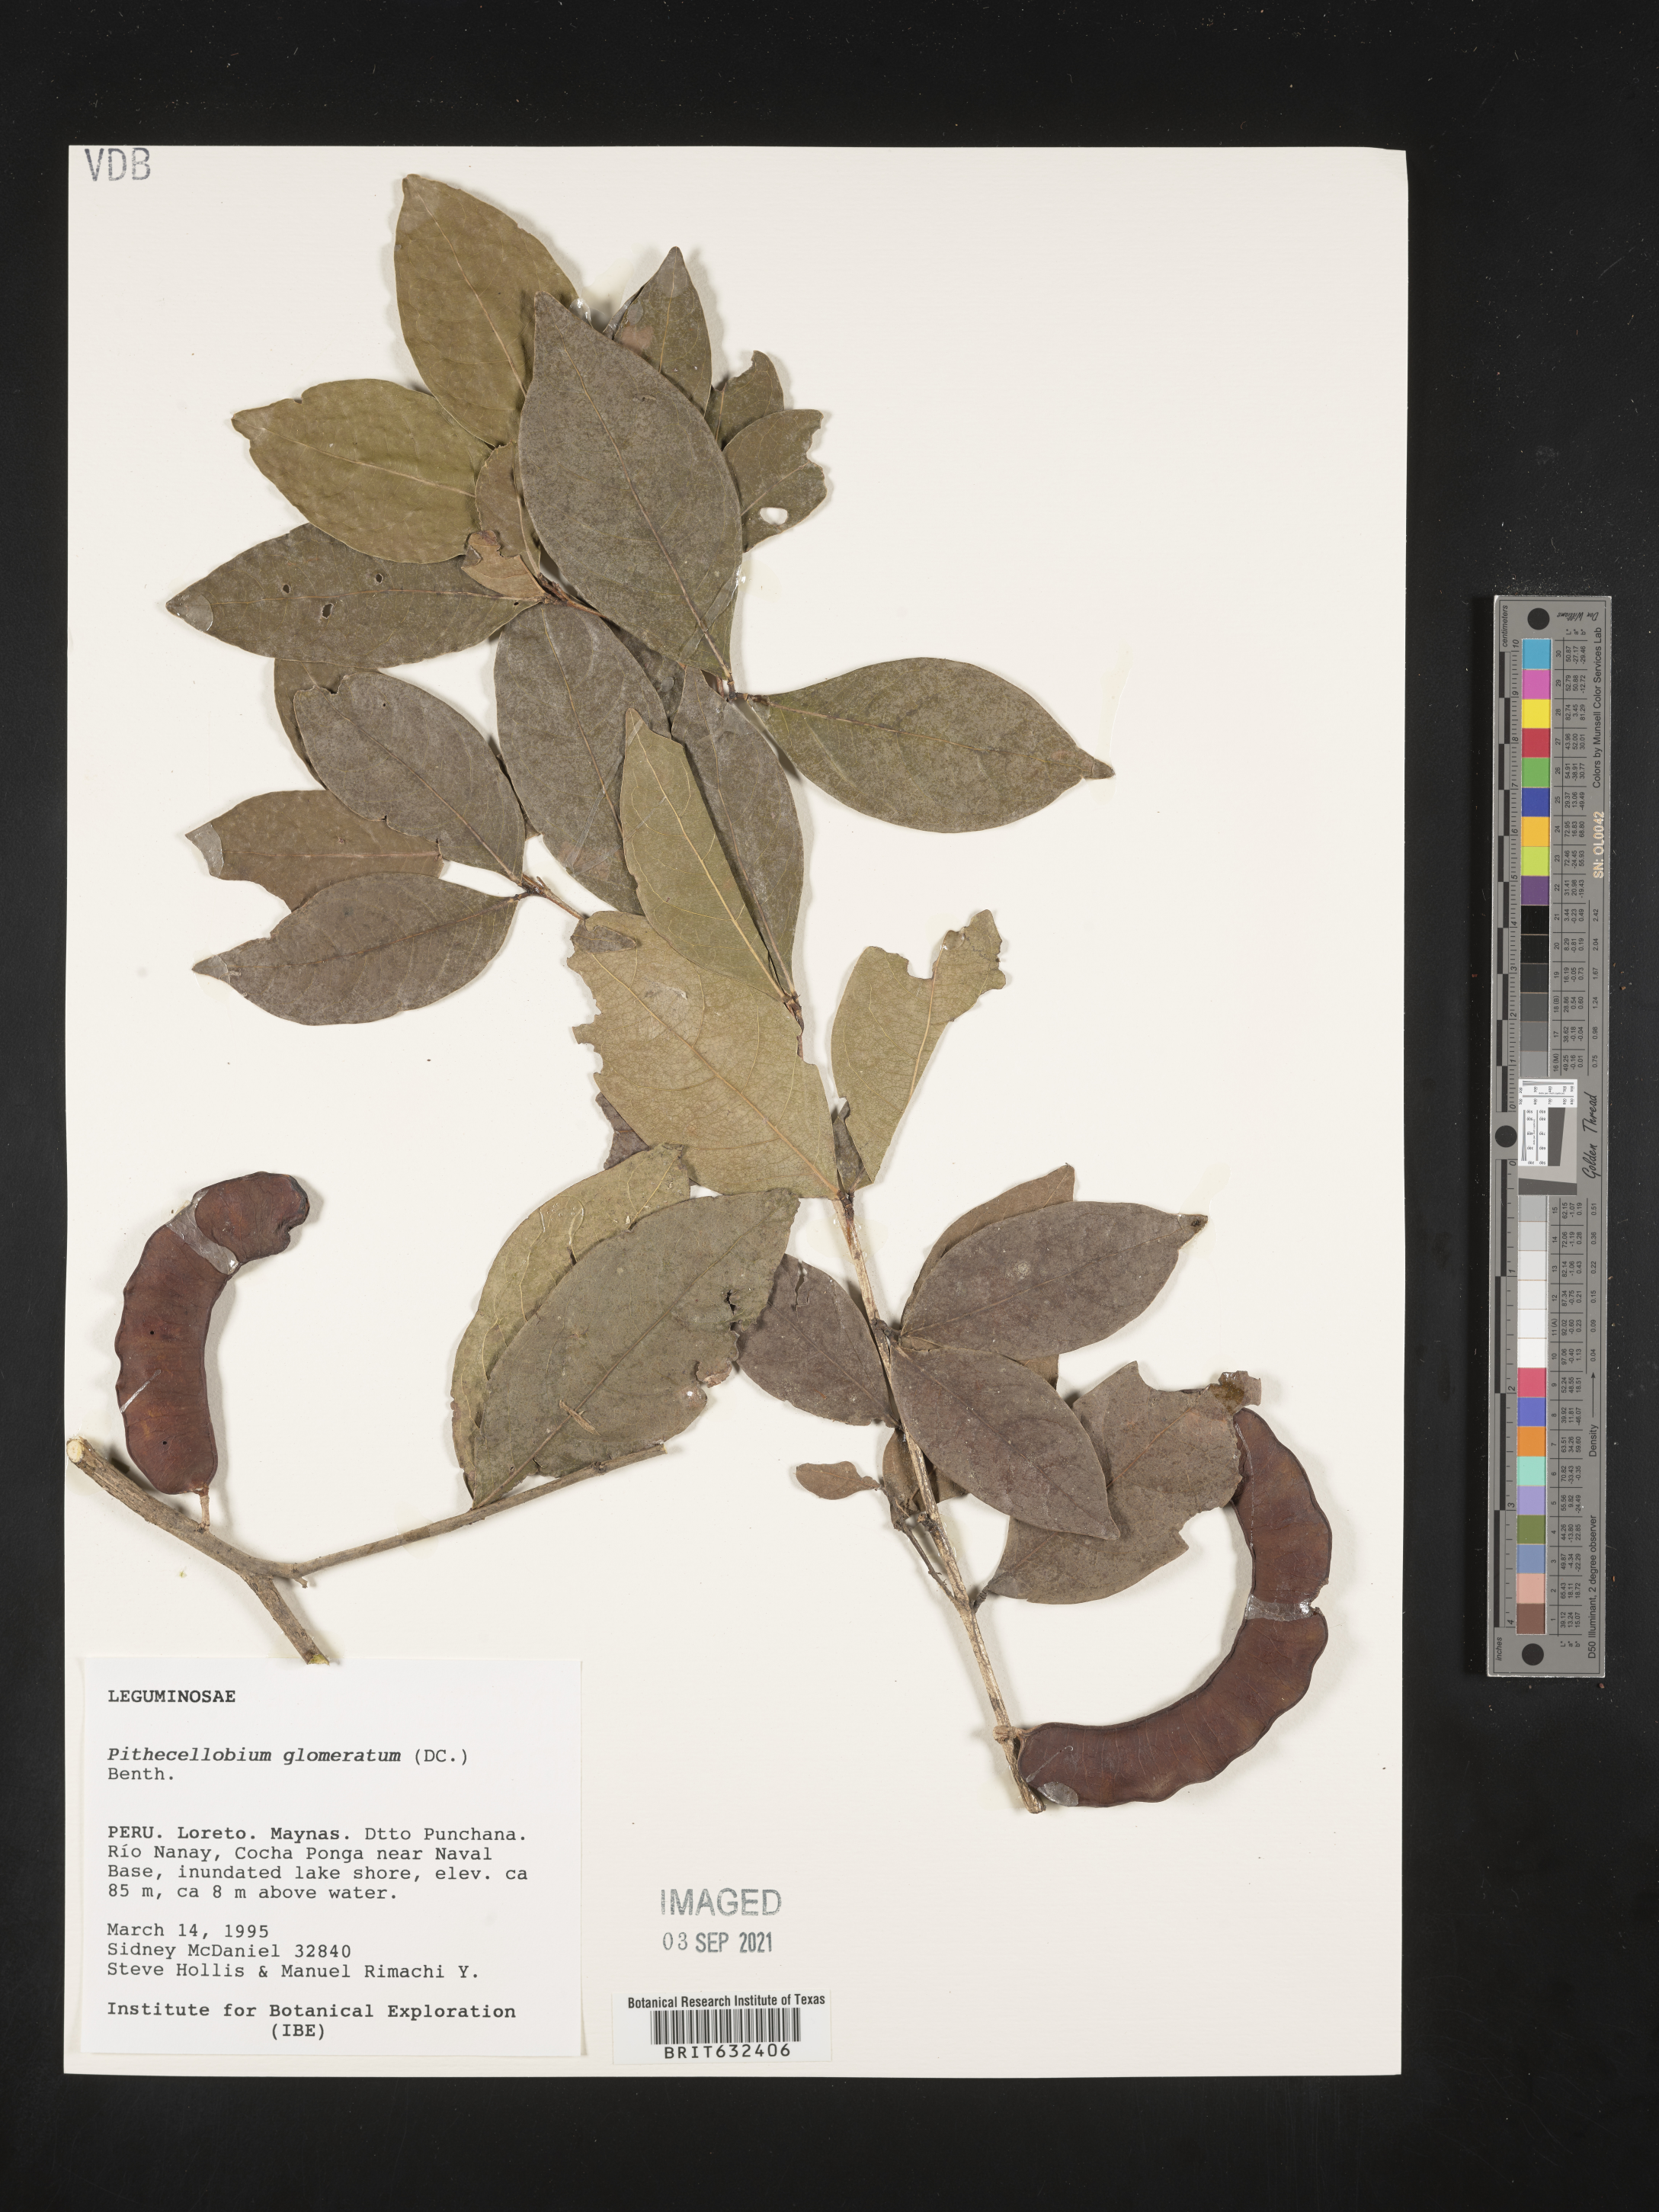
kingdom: Plantae
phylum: Tracheophyta
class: Magnoliopsida
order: Fabales
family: Fabaceae
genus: Pithecellobium
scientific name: Pithecellobium
